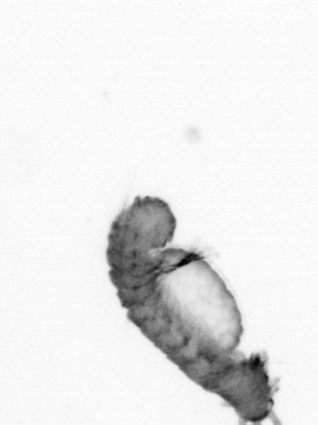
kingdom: Animalia
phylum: Annelida
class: Polychaeta
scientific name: Polychaeta
